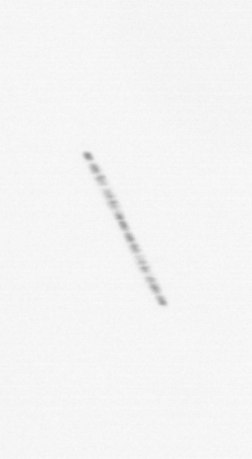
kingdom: Chromista
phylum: Ochrophyta
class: Bacillariophyceae
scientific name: Bacillariophyceae
